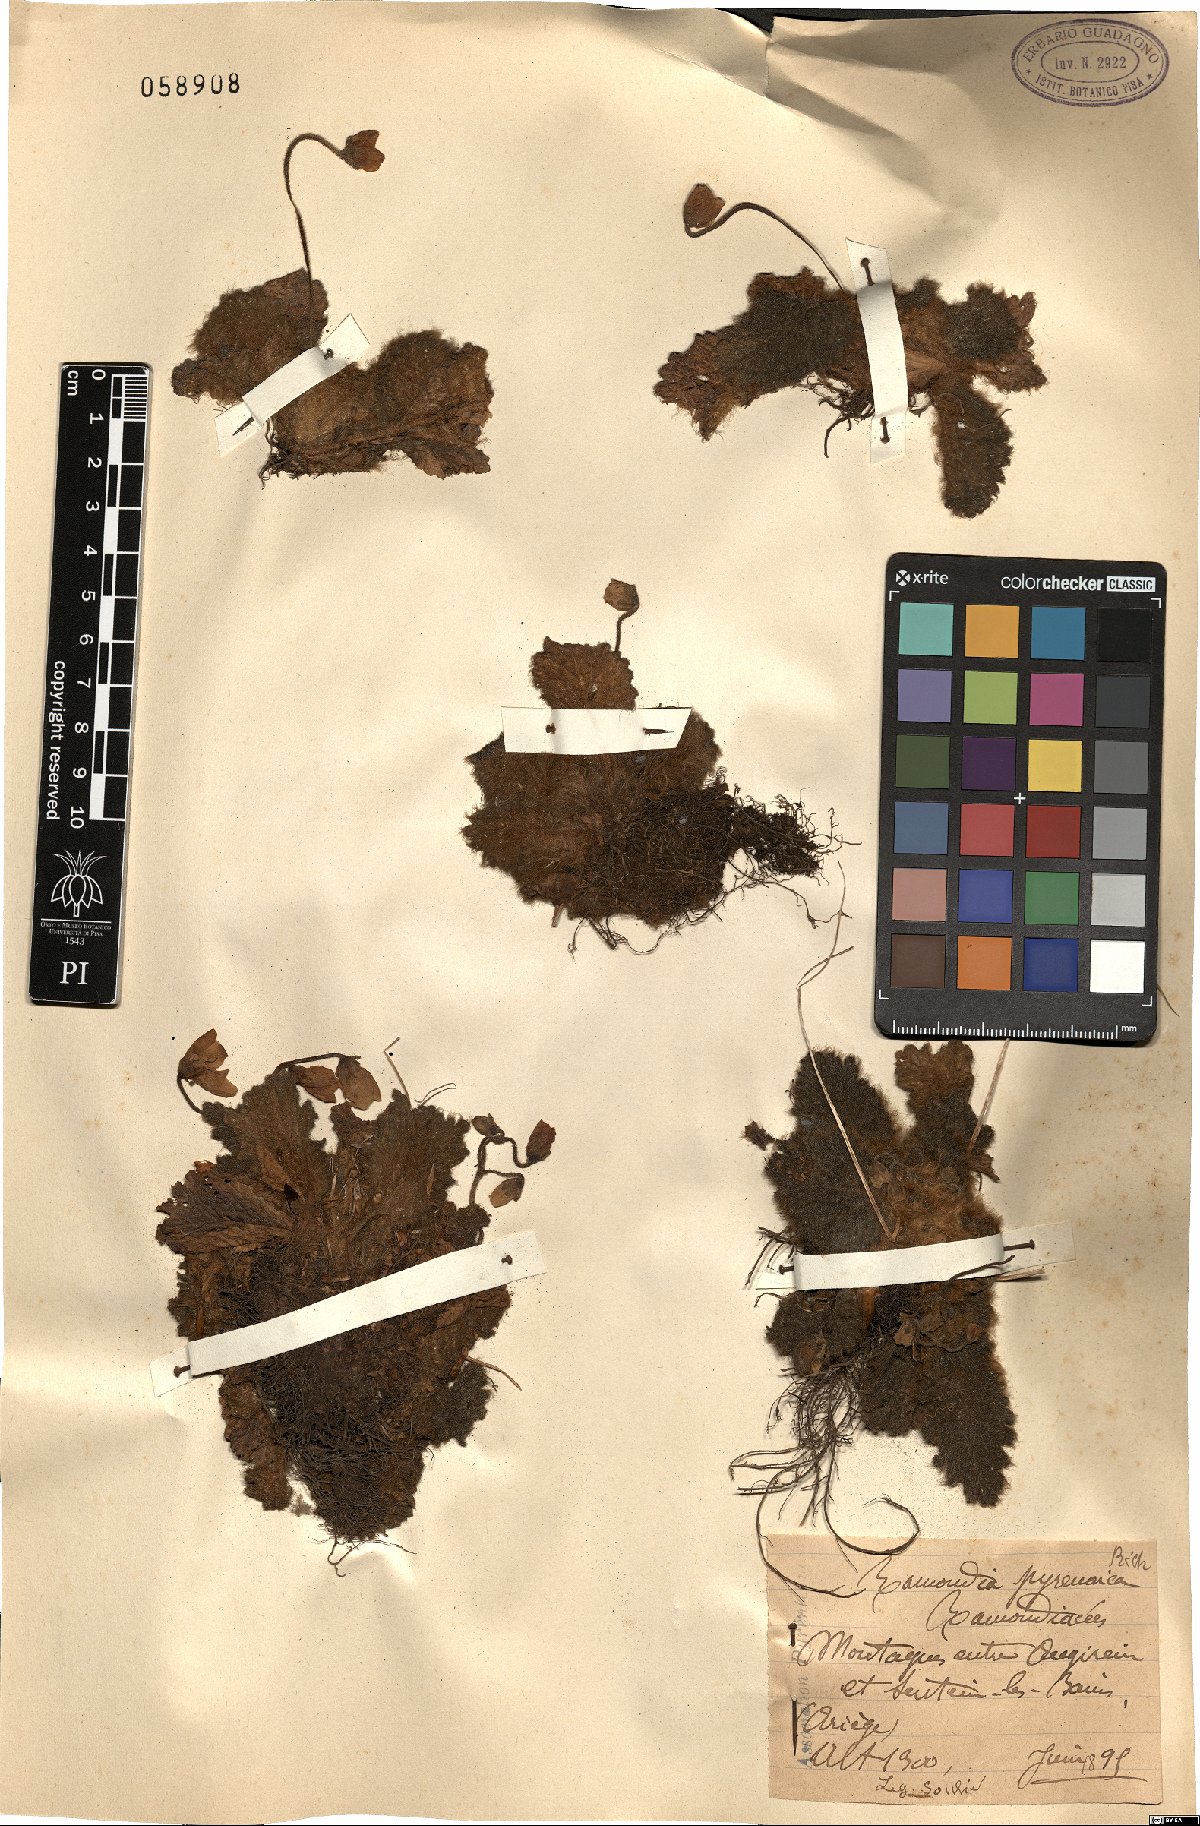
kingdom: Plantae
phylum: Tracheophyta
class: Magnoliopsida
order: Lamiales
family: Gesneriaceae
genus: Ramonda
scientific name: Ramonda myconi
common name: Pyrenean-violet
